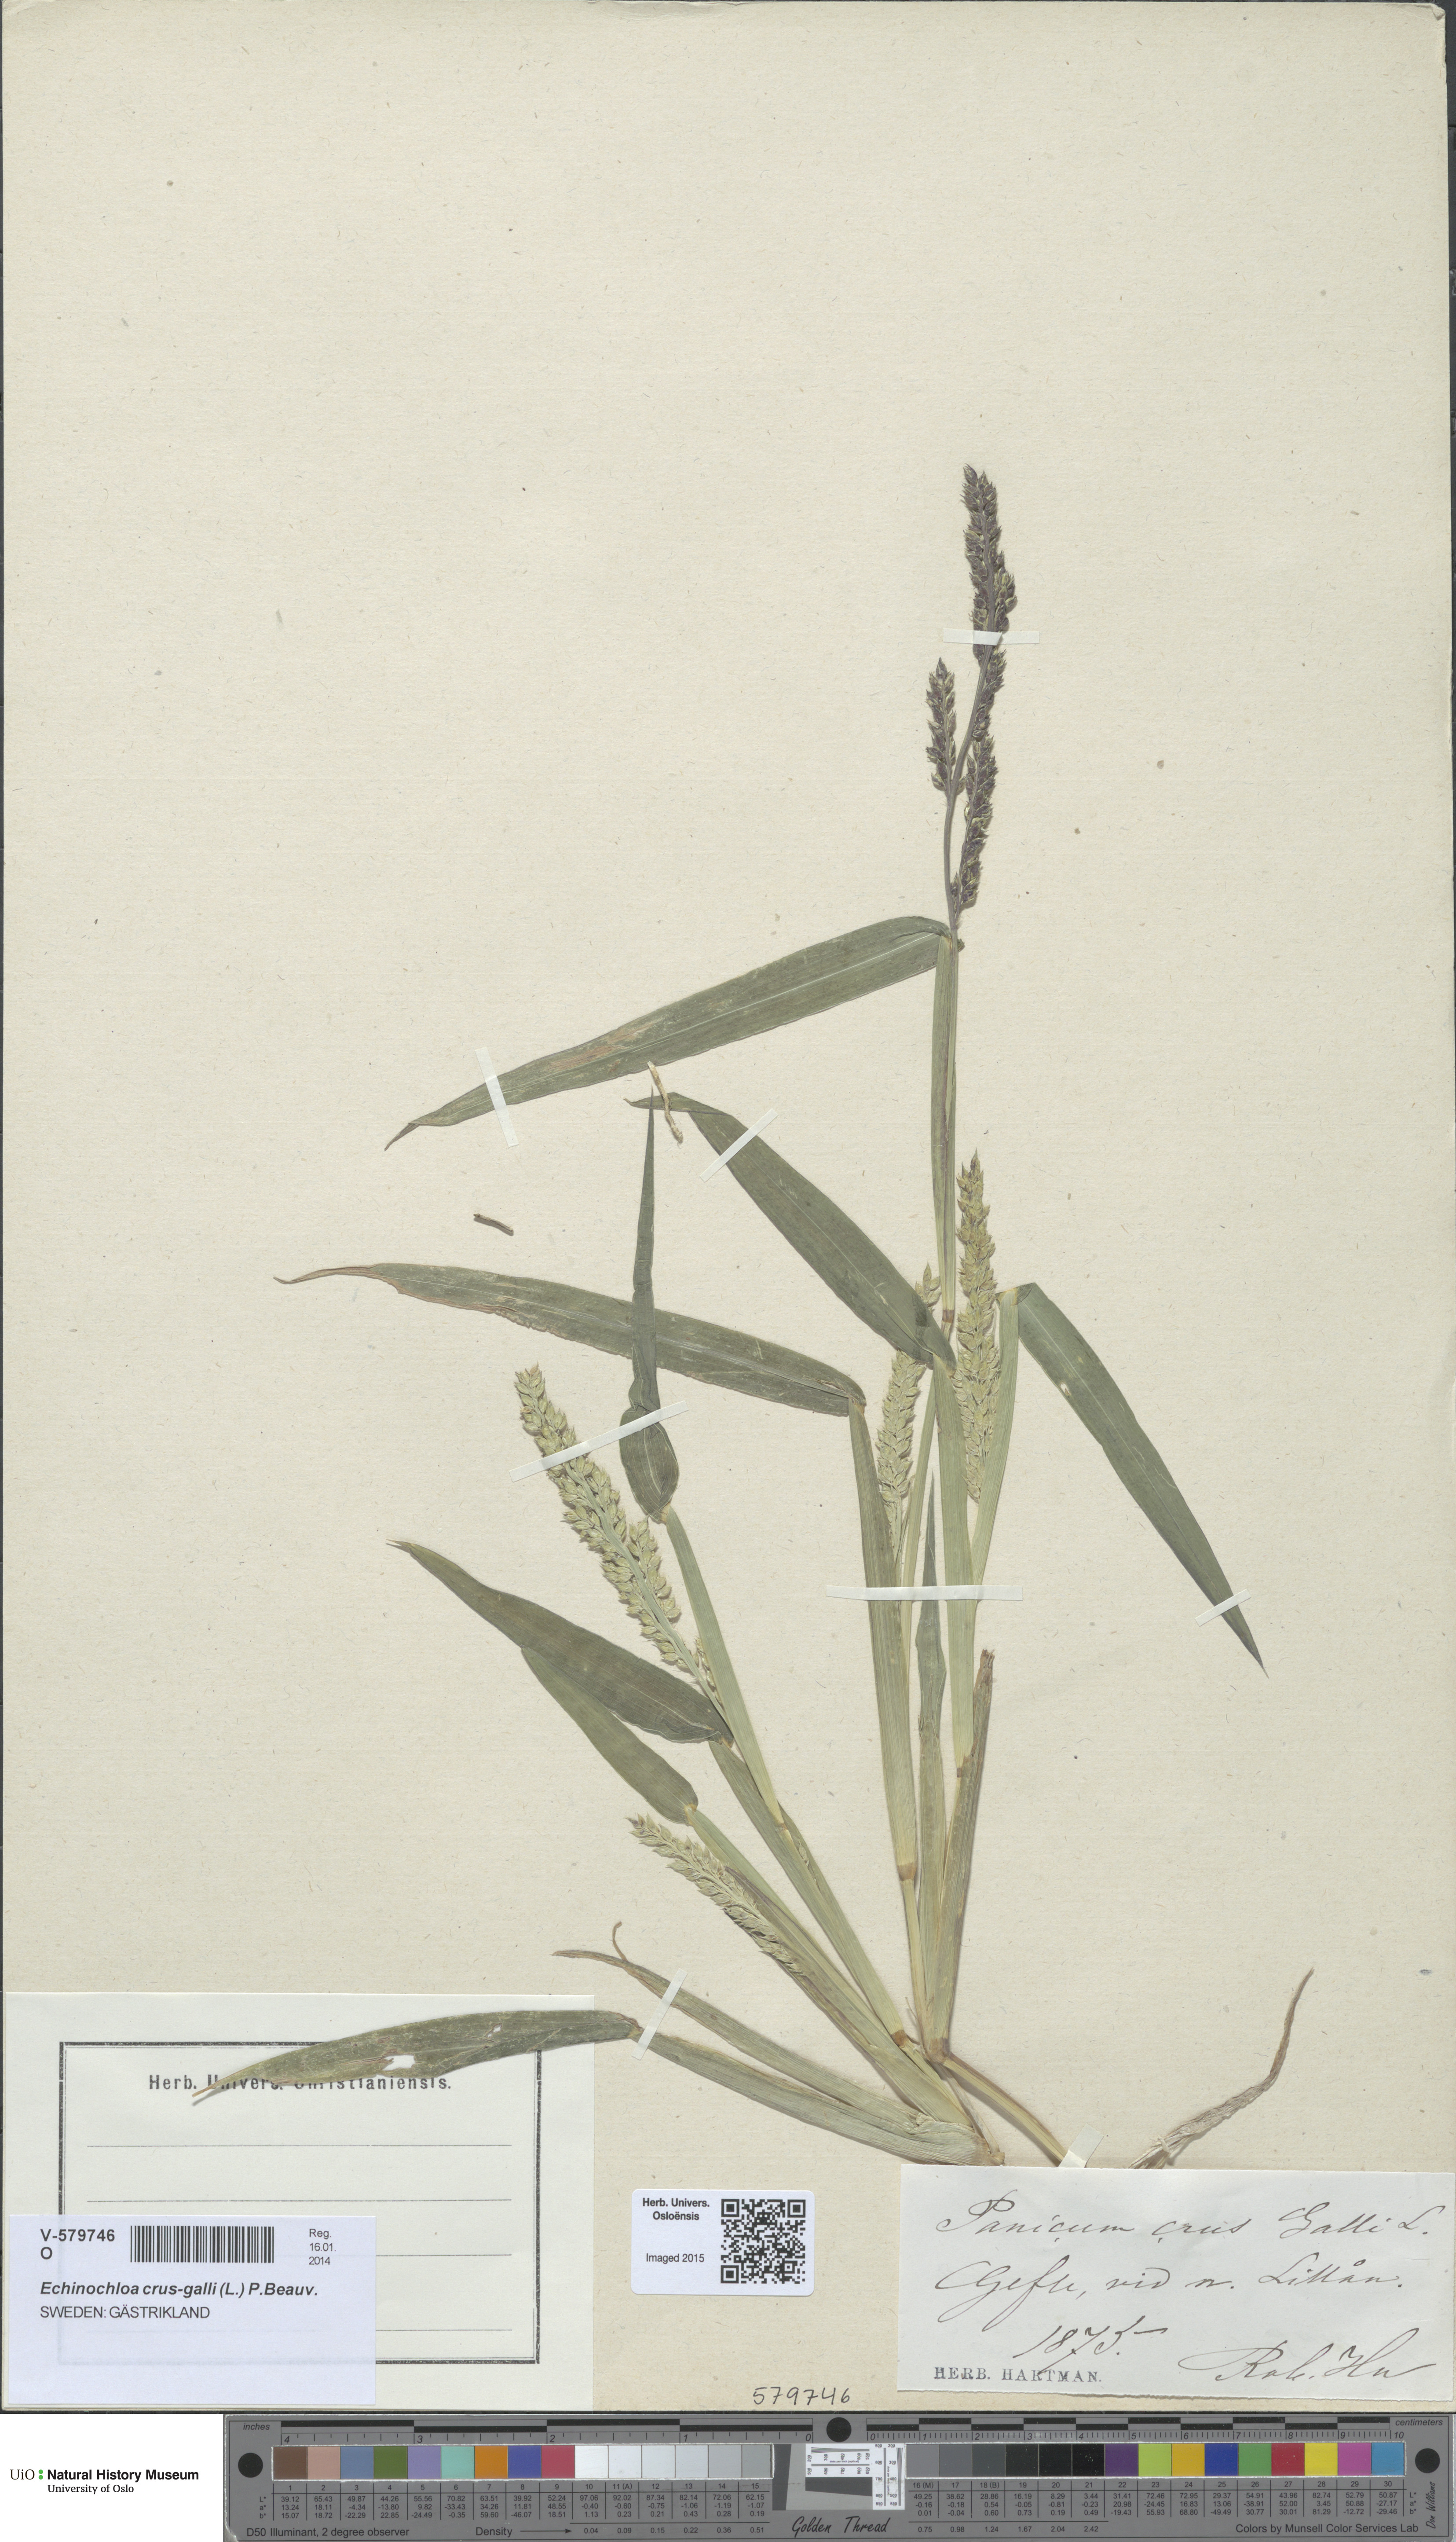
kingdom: Plantae
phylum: Tracheophyta
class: Liliopsida
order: Poales
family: Poaceae
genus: Echinochloa
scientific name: Echinochloa crus-galli
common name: Cockspur
